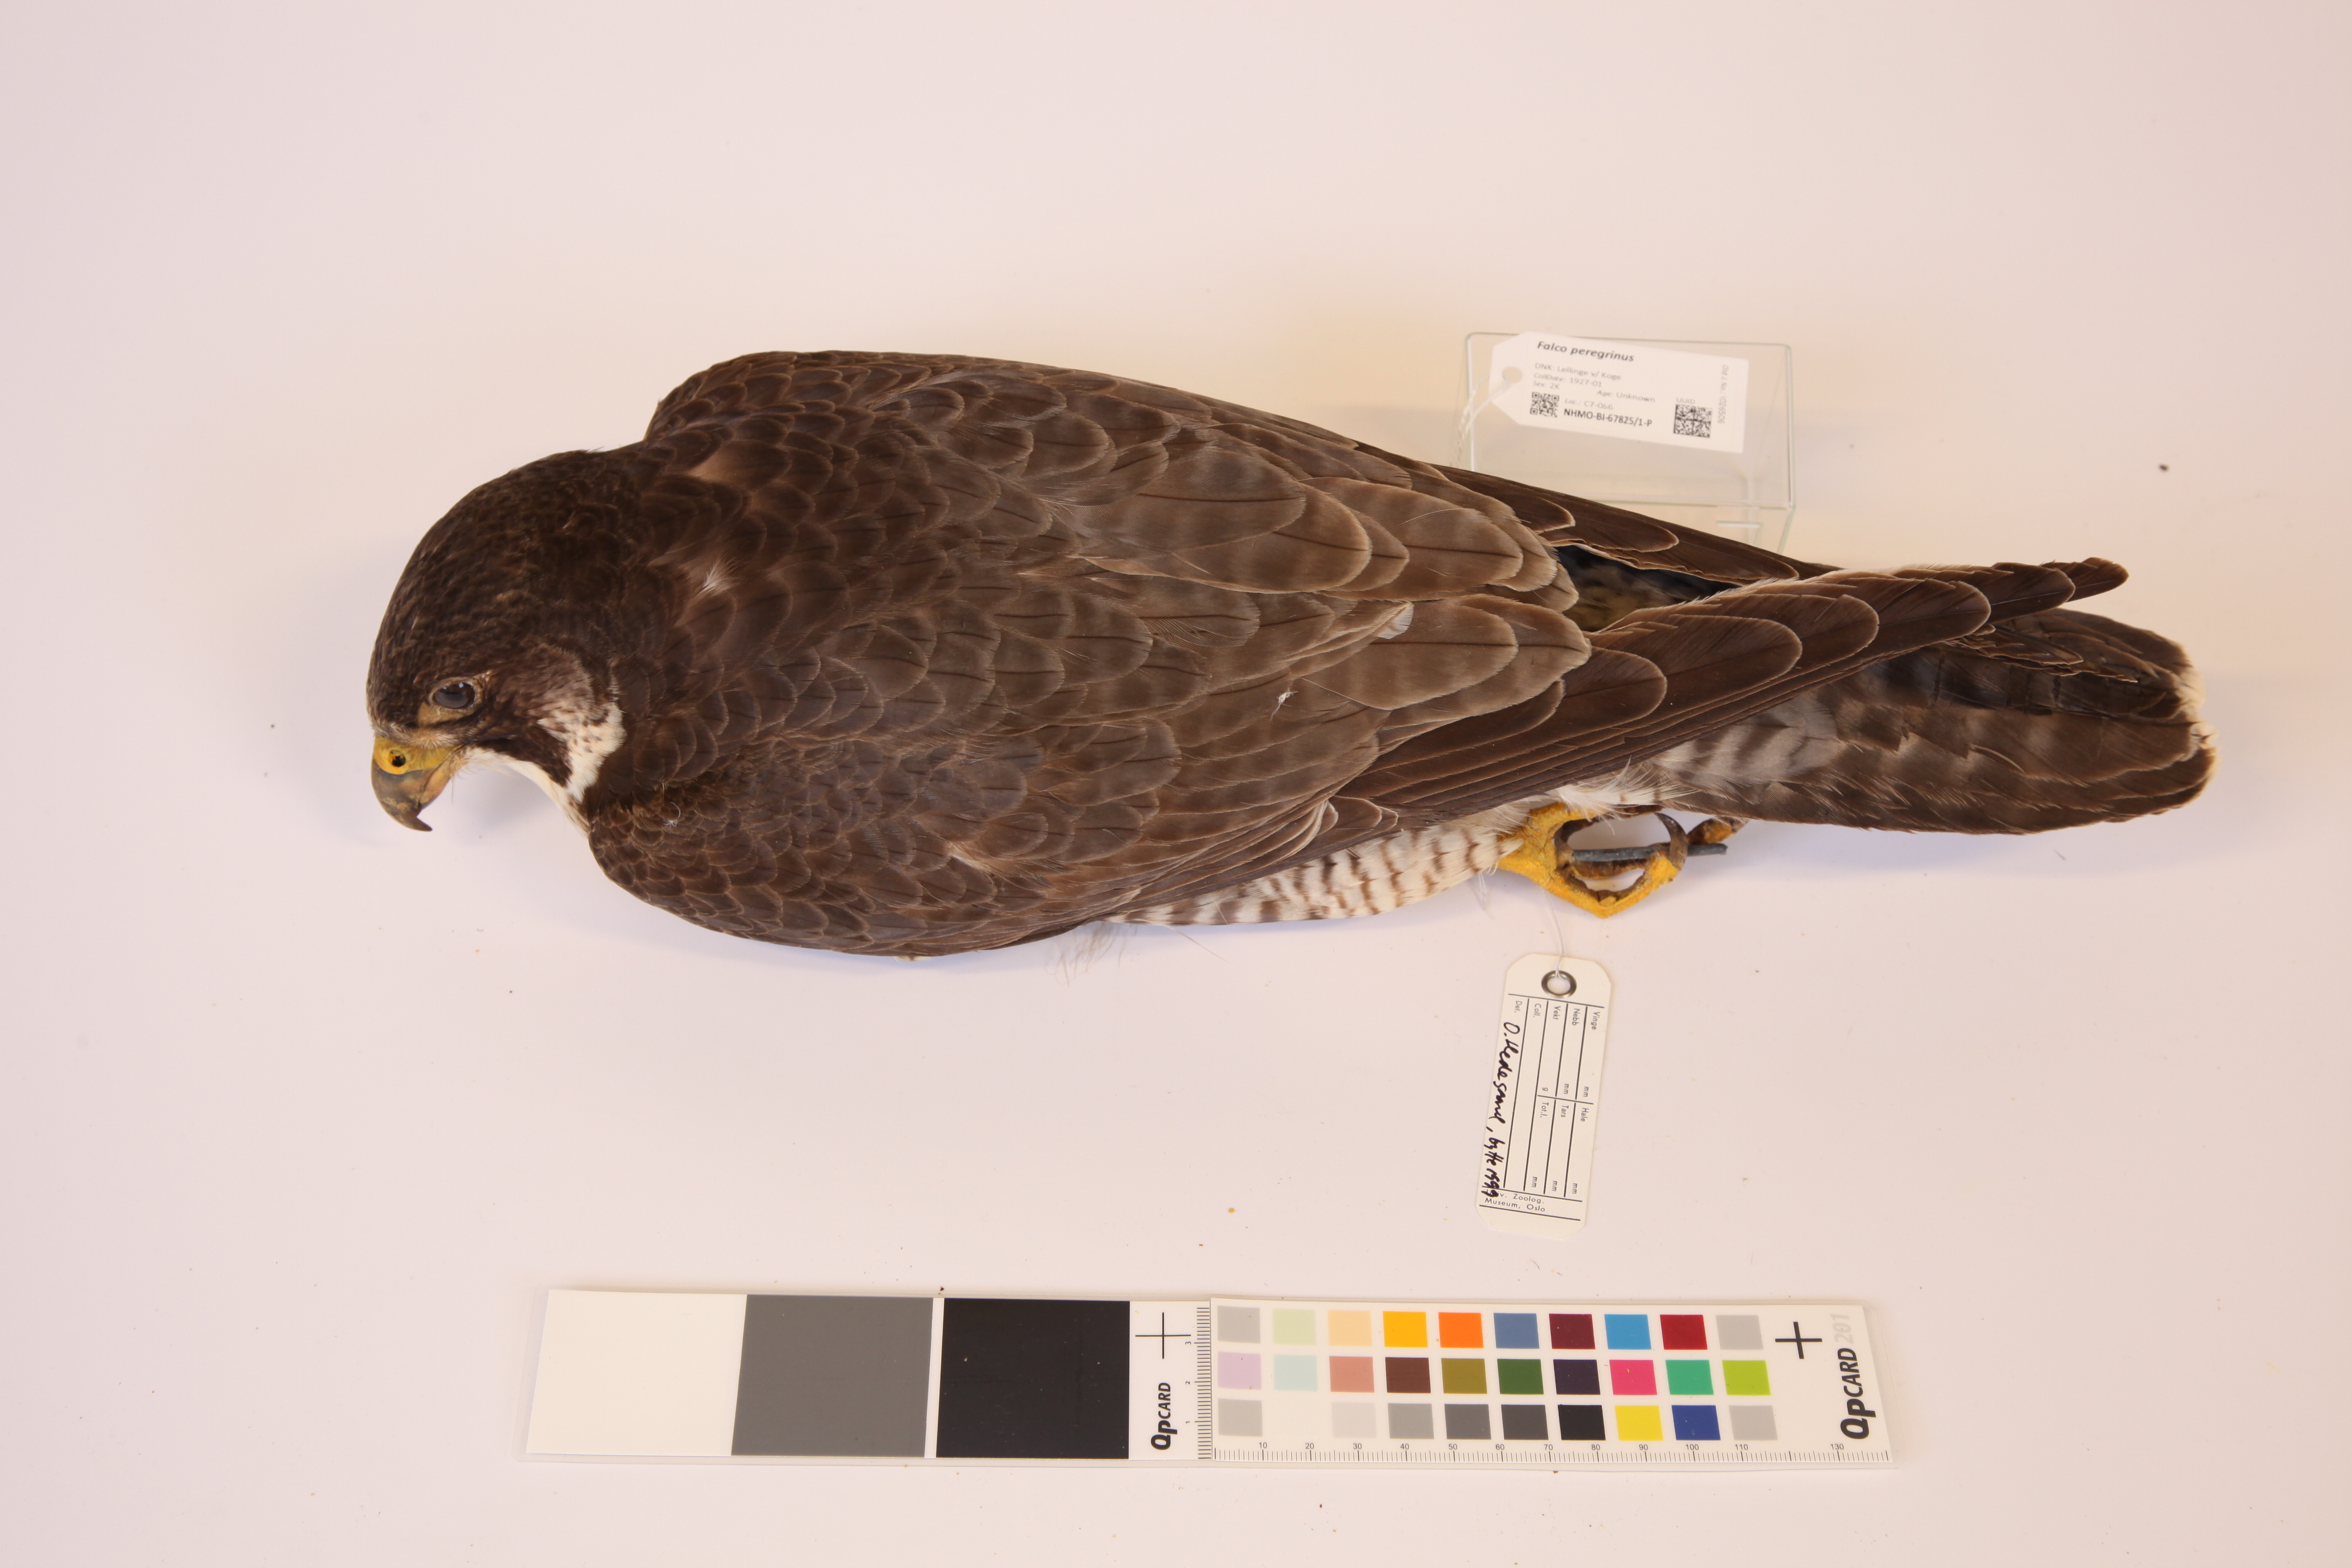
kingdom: Animalia
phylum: Chordata
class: Aves
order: Falconiformes
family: Falconidae
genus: Falco
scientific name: Falco peregrinus
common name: Peregrine falcon
